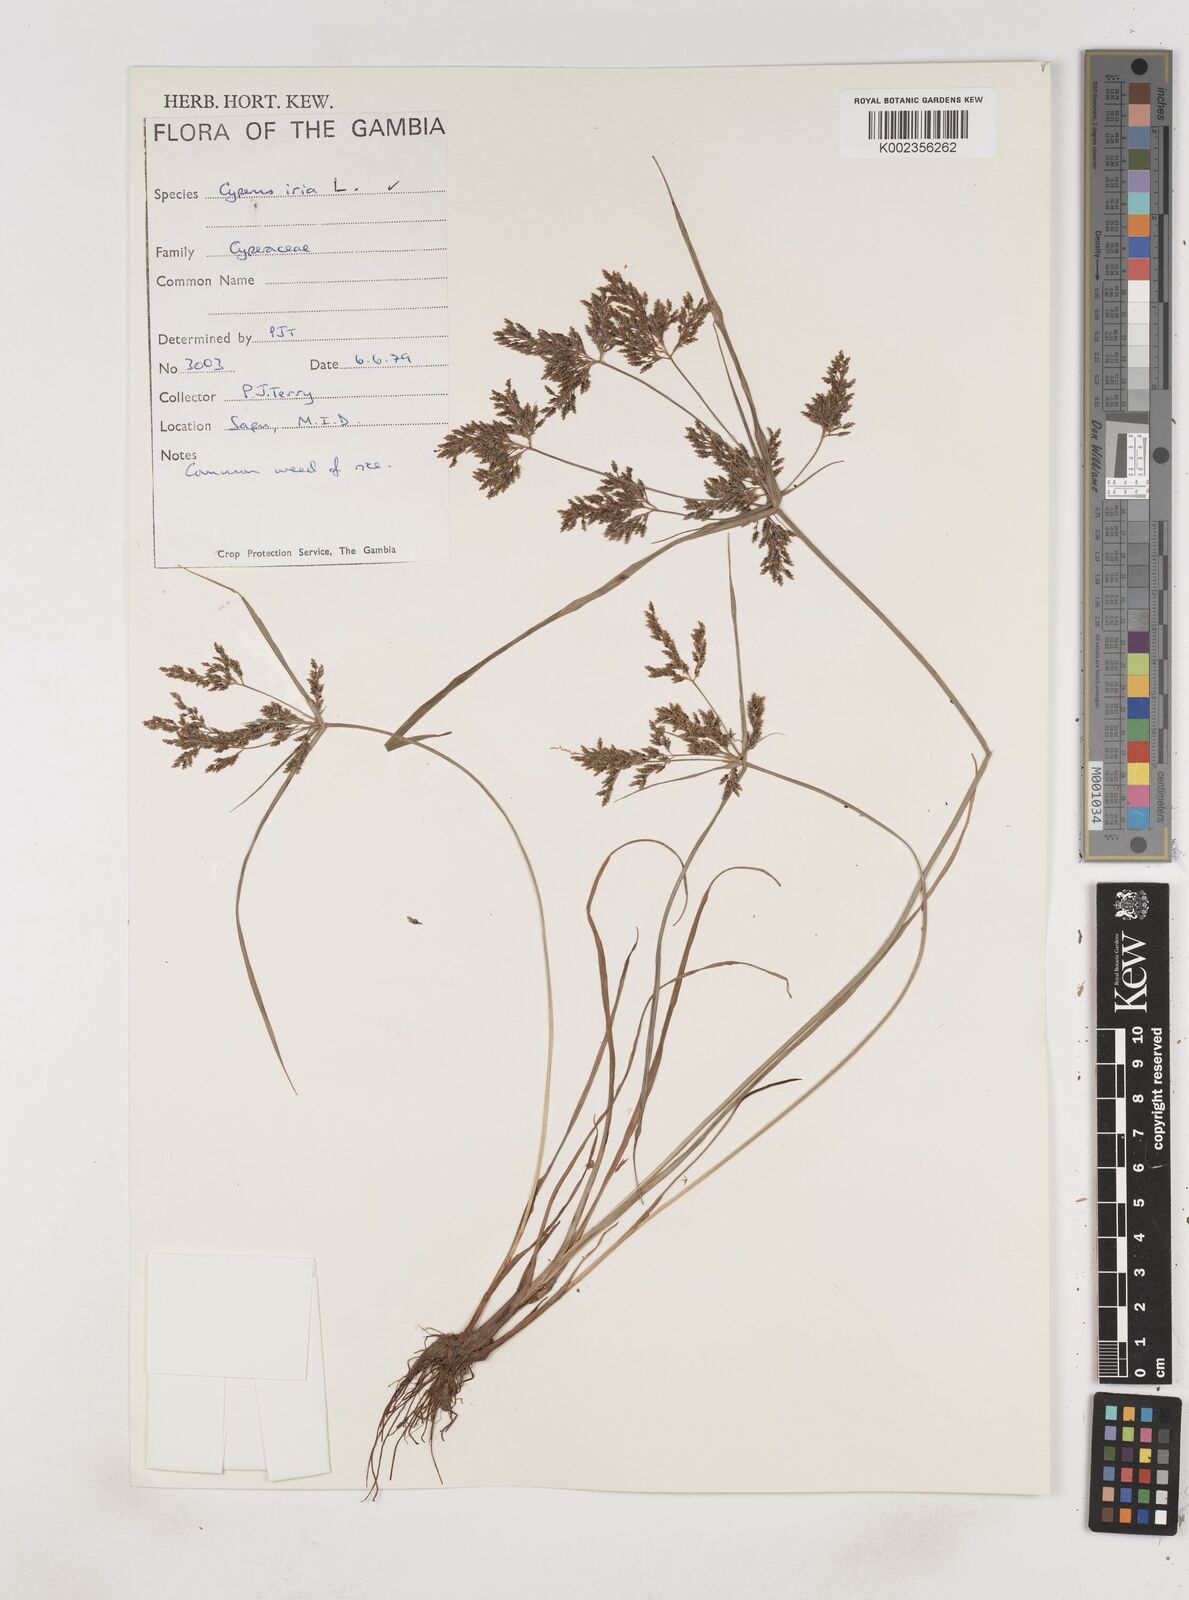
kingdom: Plantae
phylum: Tracheophyta
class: Liliopsida
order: Poales
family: Cyperaceae
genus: Cyperus
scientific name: Cyperus iria
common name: Ricefield flatsedge
